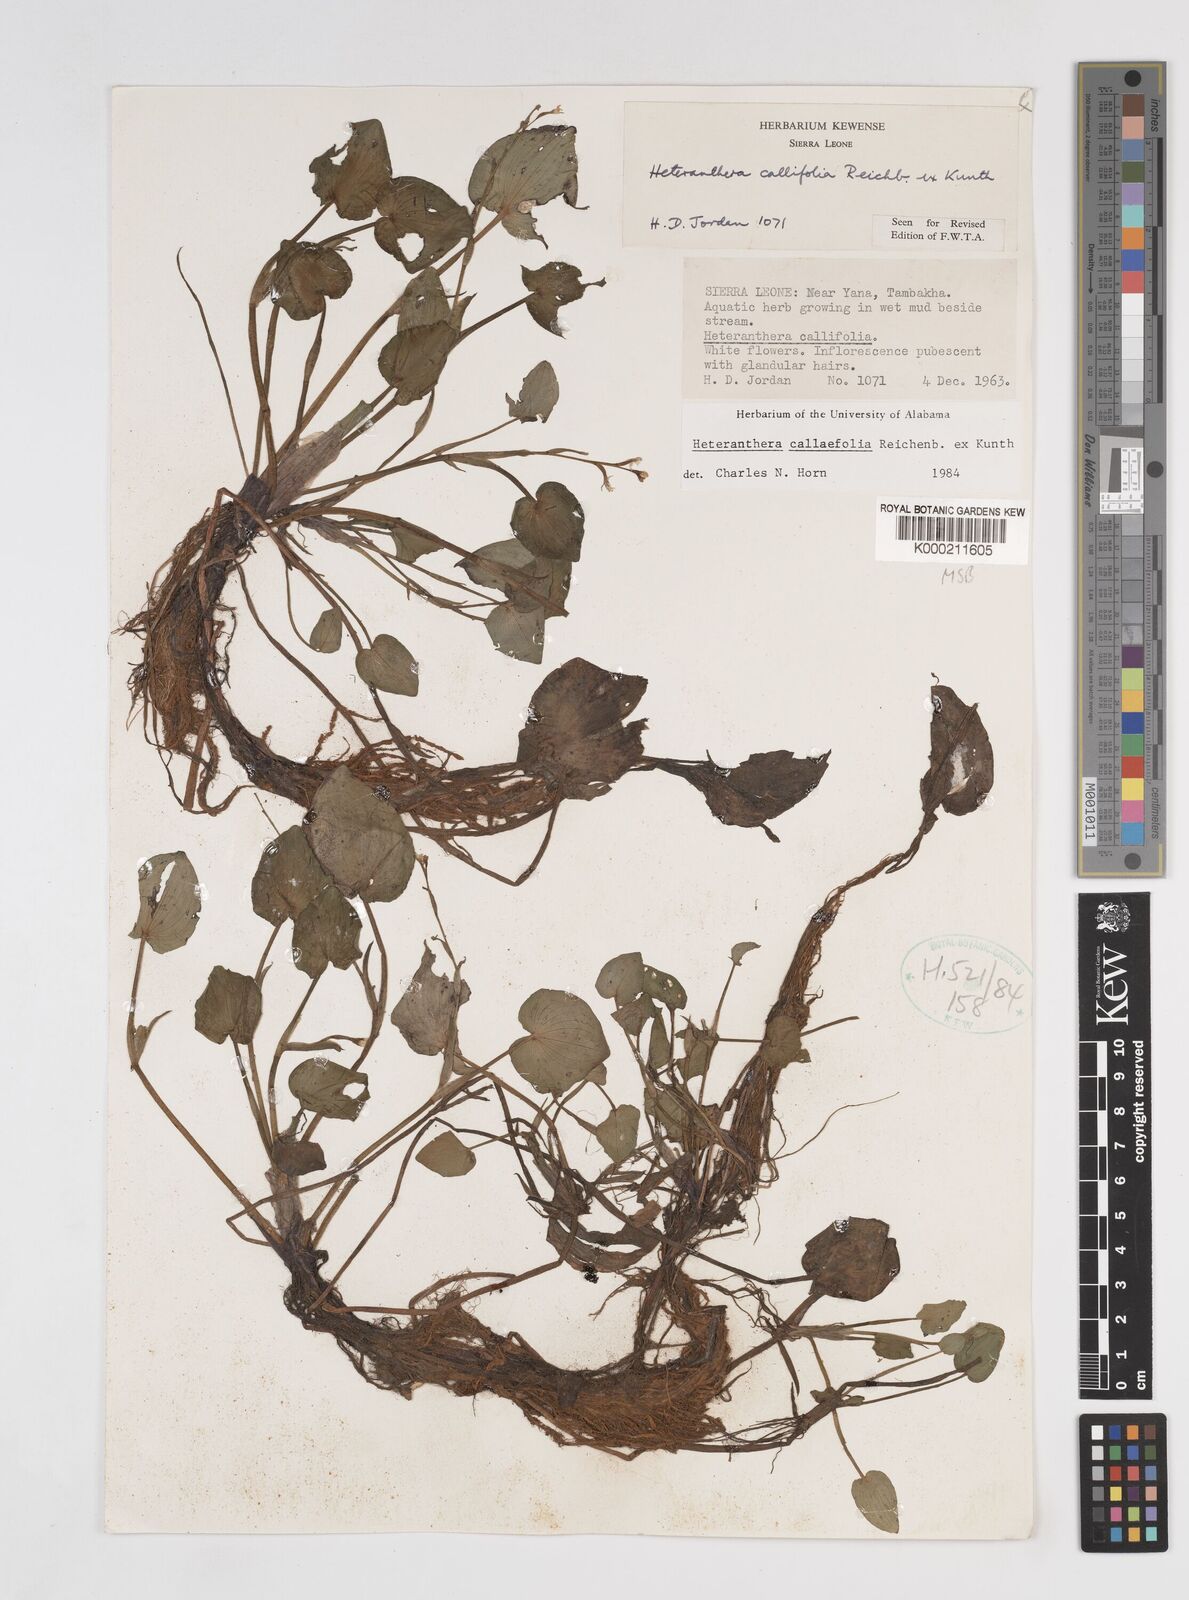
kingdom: Plantae
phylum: Tracheophyta
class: Liliopsida
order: Commelinales
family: Pontederiaceae
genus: Heteranthera
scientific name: Heteranthera callifolia
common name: Mud plantain
